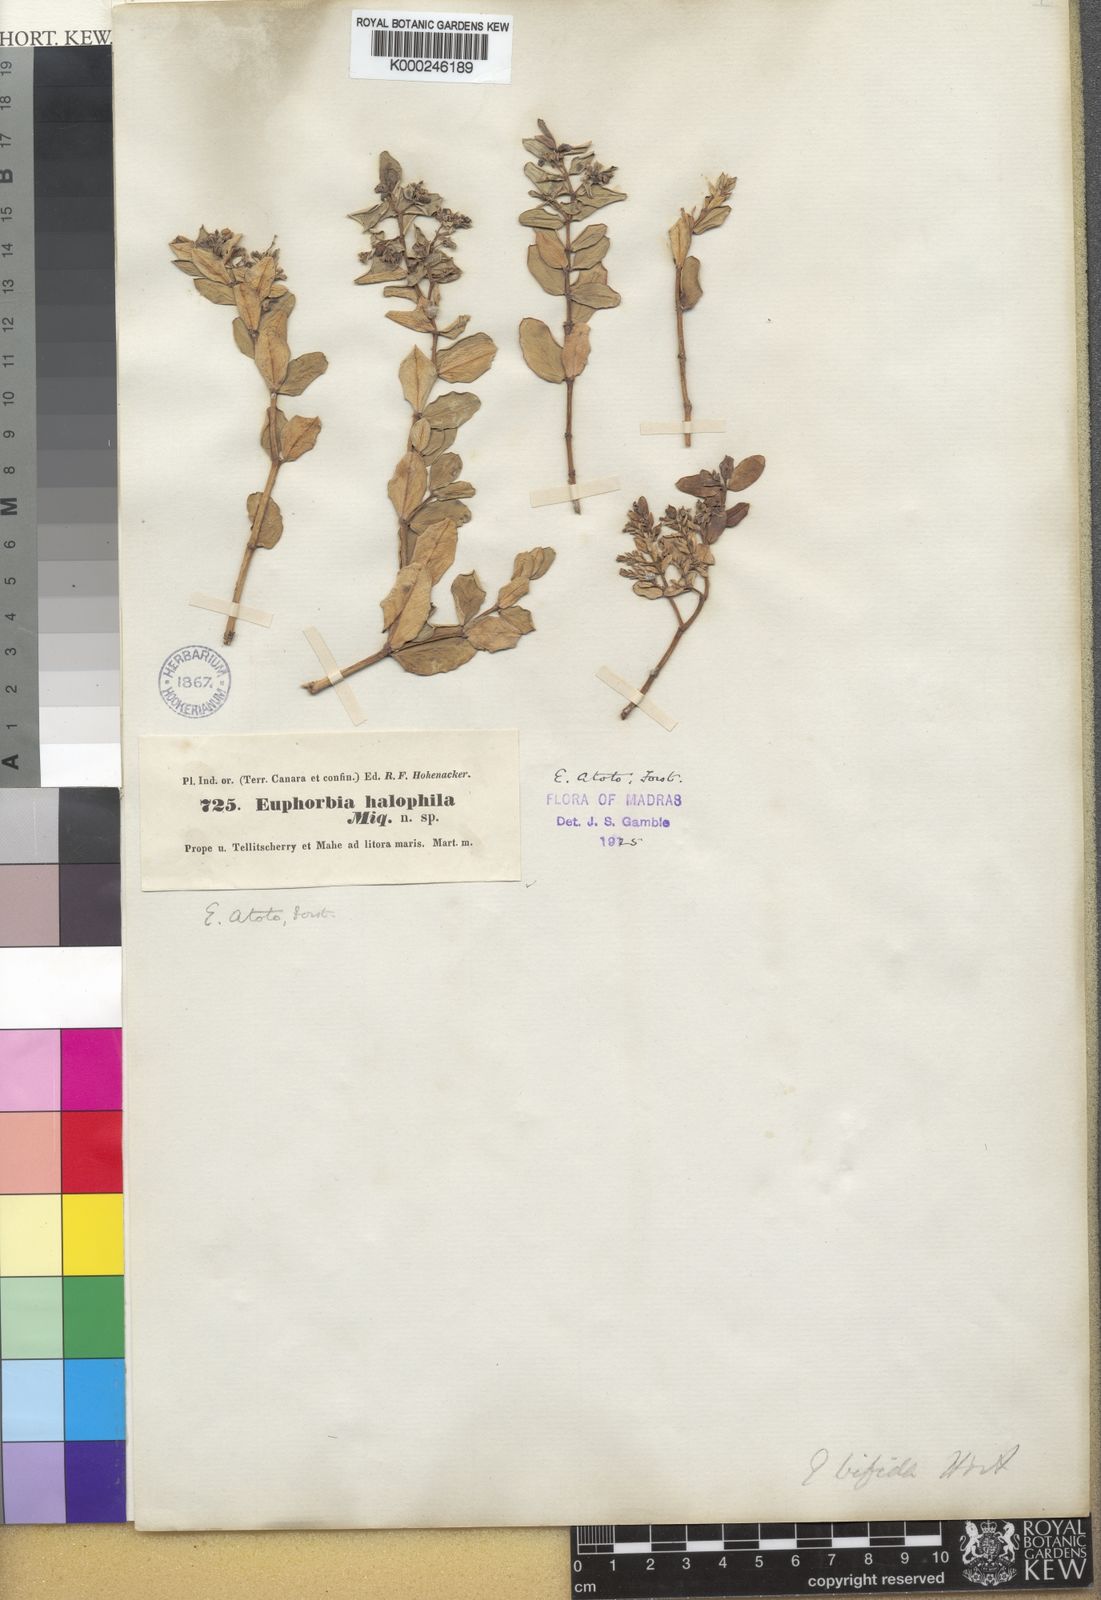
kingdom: Plantae
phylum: Tracheophyta
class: Magnoliopsida
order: Malpighiales
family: Euphorbiaceae
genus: Euphorbia
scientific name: Euphorbia atoto
